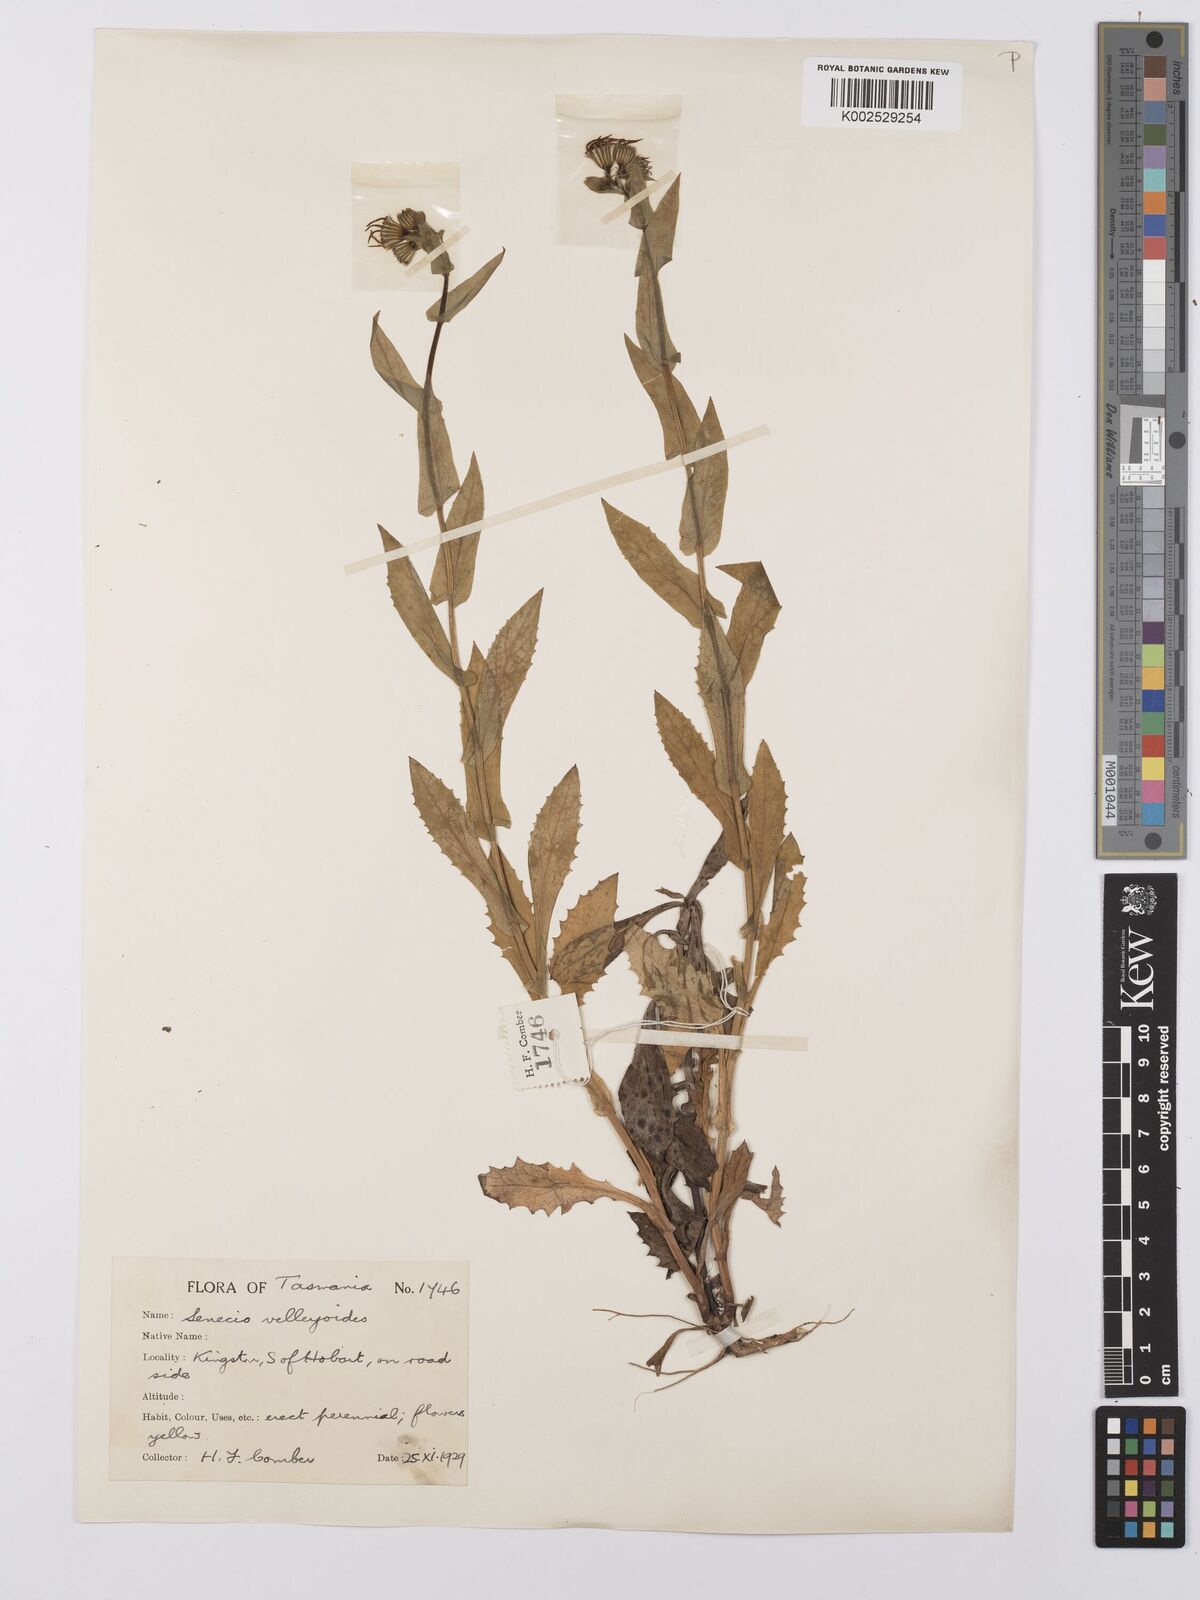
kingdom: Plantae
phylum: Tracheophyta
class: Magnoliopsida
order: Asterales
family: Asteraceae
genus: Lordhowea
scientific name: Lordhowea velleioides
